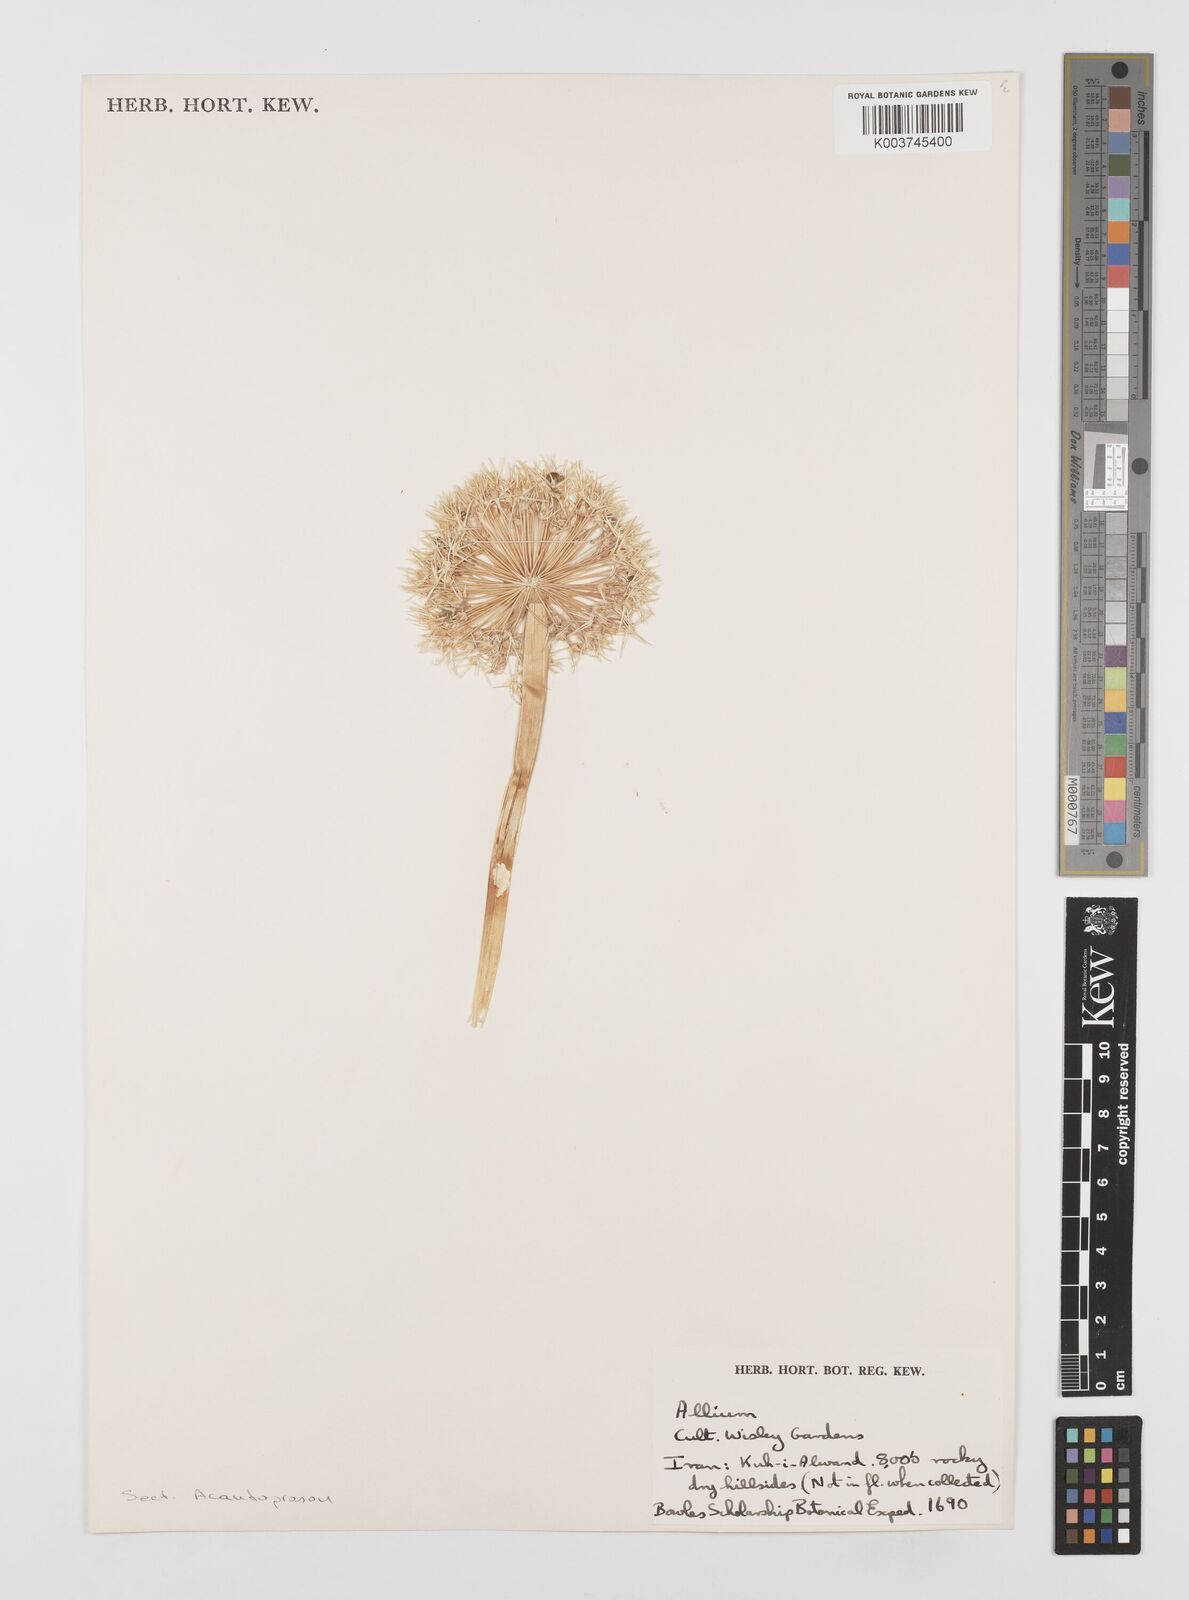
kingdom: Plantae
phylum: Tracheophyta
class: Liliopsida
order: Asparagales
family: Amaryllidaceae
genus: Allium
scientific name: Allium
